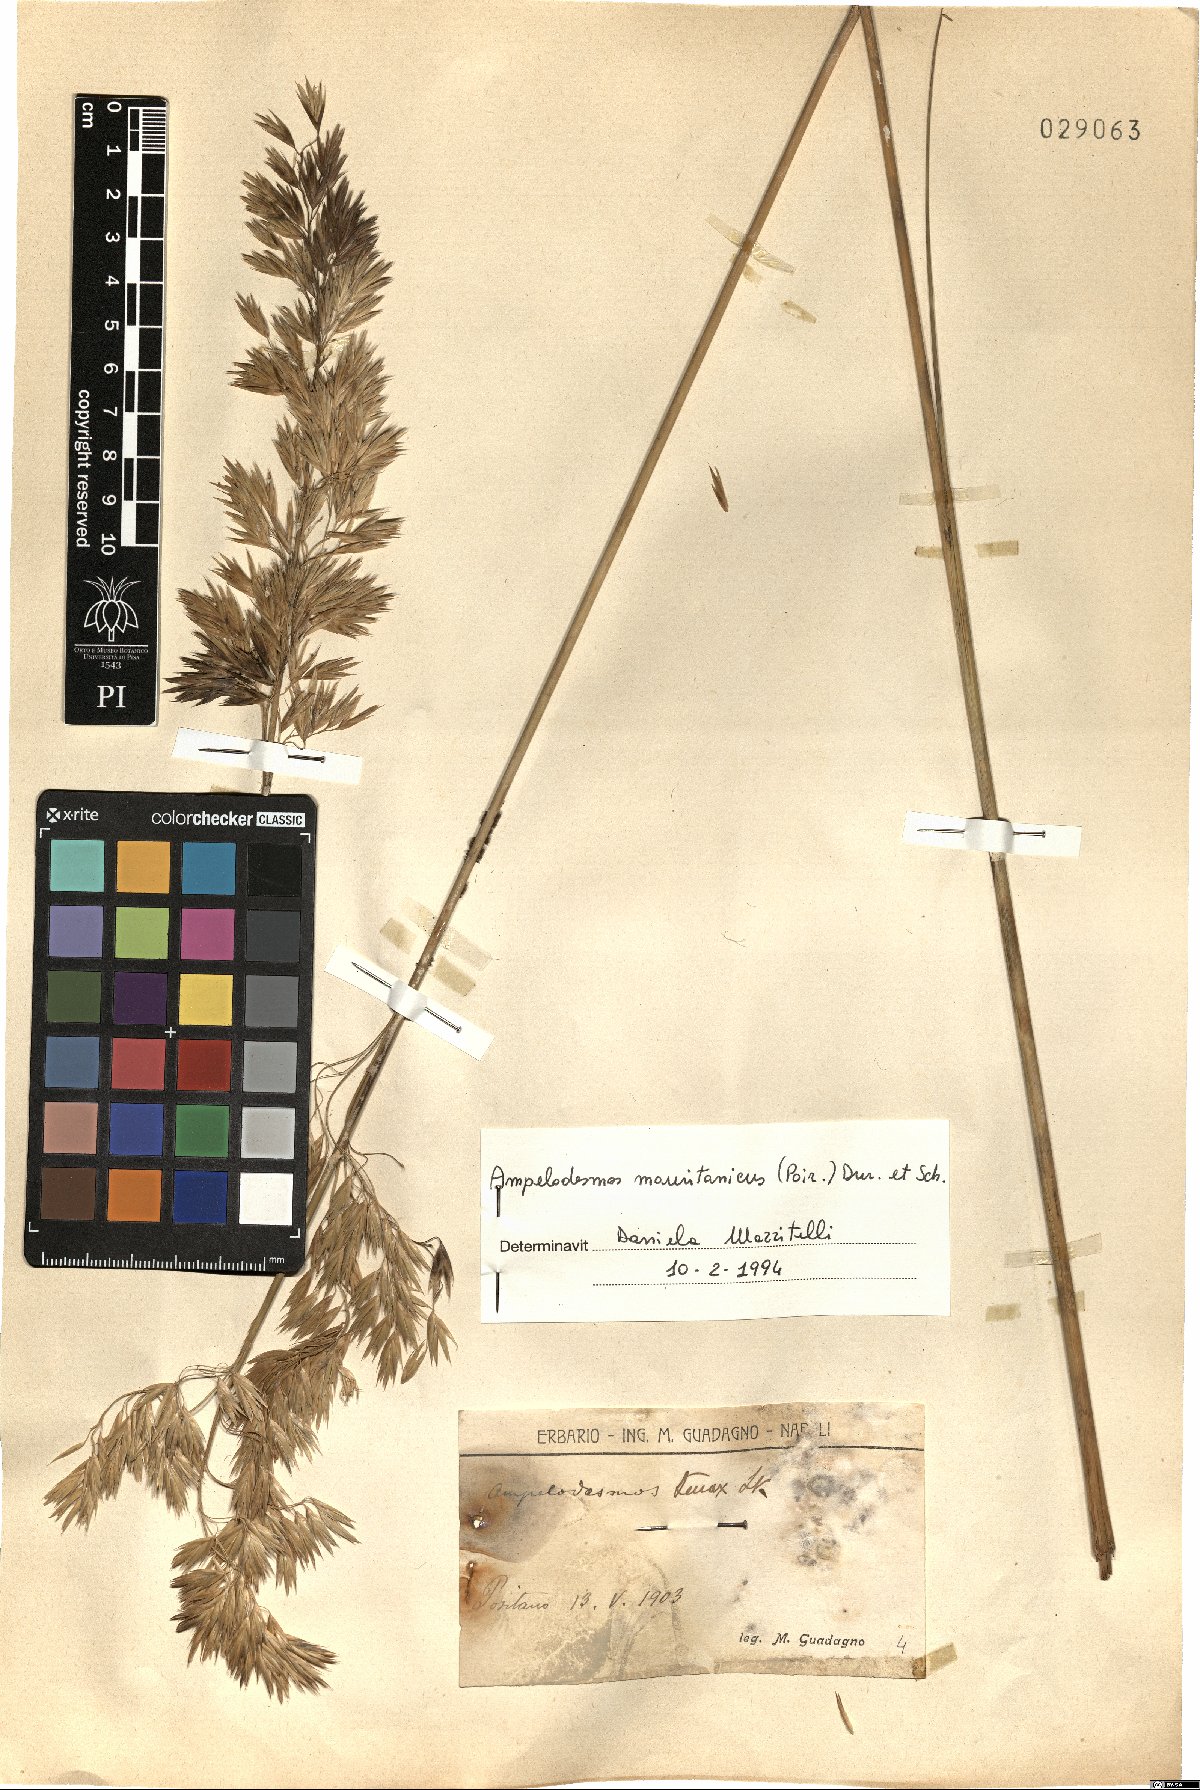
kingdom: Plantae
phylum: Tracheophyta
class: Liliopsida
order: Poales
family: Poaceae
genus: Ampelodesmos
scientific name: Ampelodesmos mauritanicus
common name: Mauritanian grass
